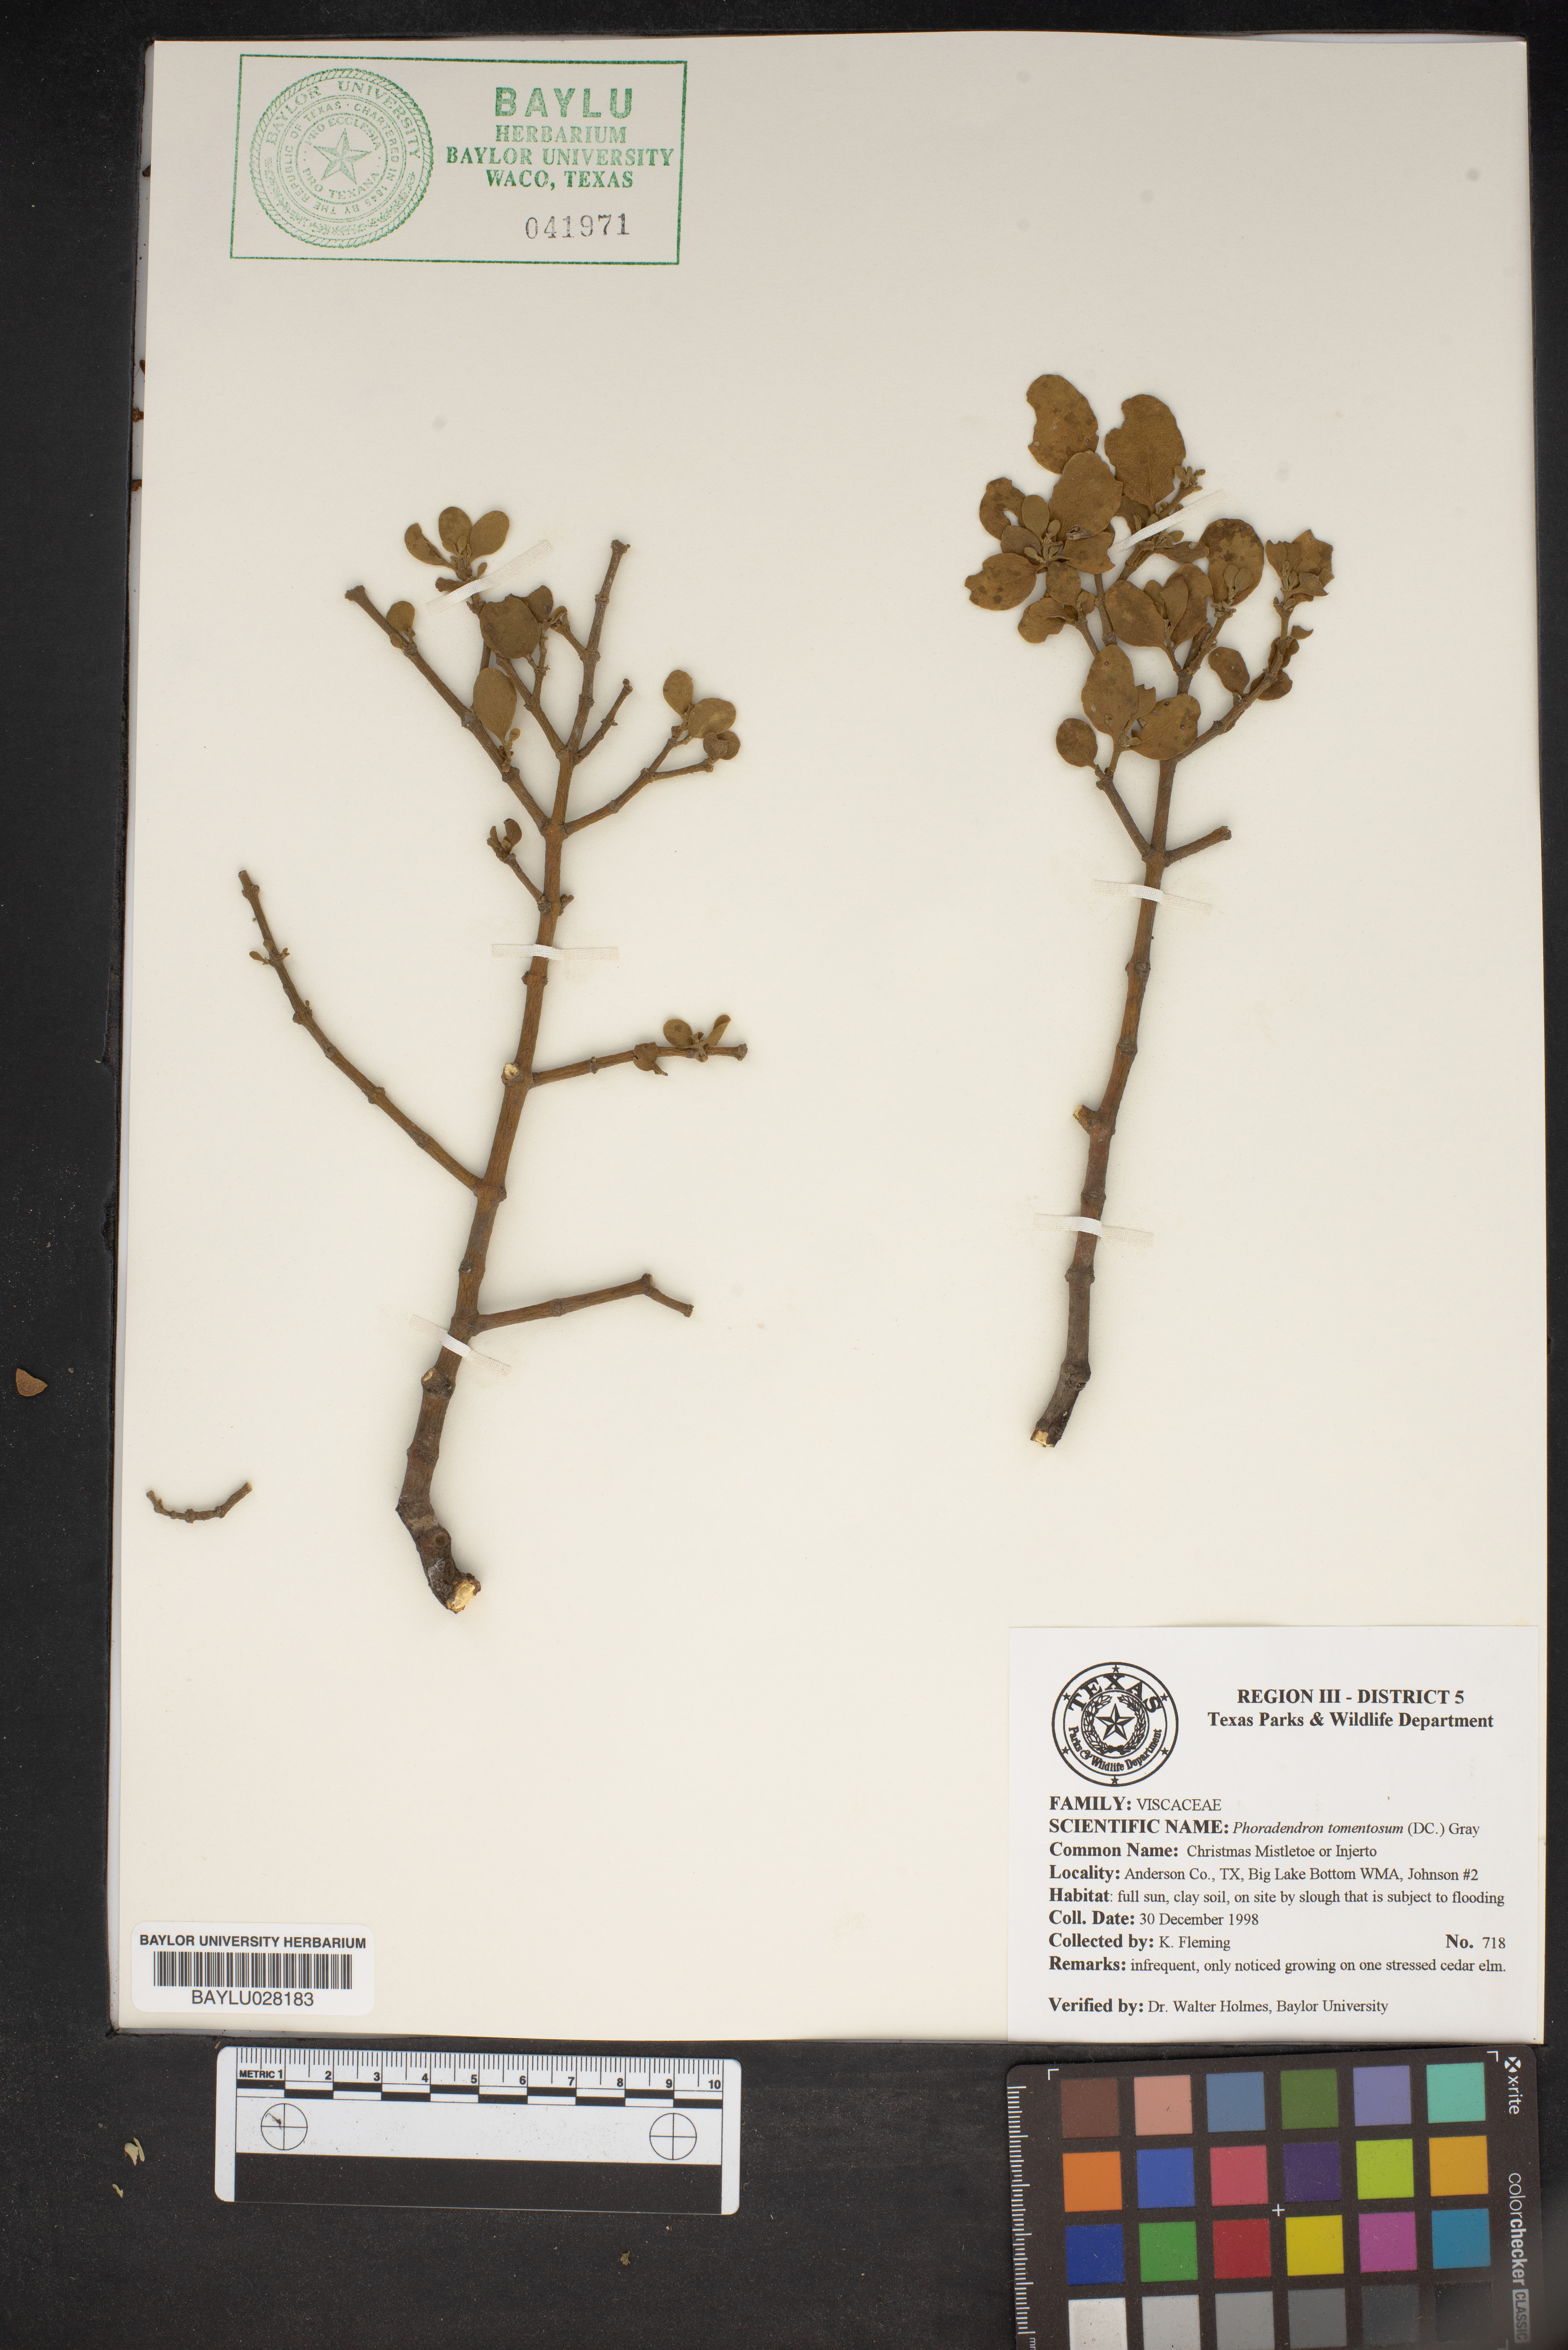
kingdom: Plantae
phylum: Tracheophyta
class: Magnoliopsida
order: Santalales
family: Viscaceae
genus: Phoradendron
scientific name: Phoradendron leucarpum
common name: Pacific mistletoe
